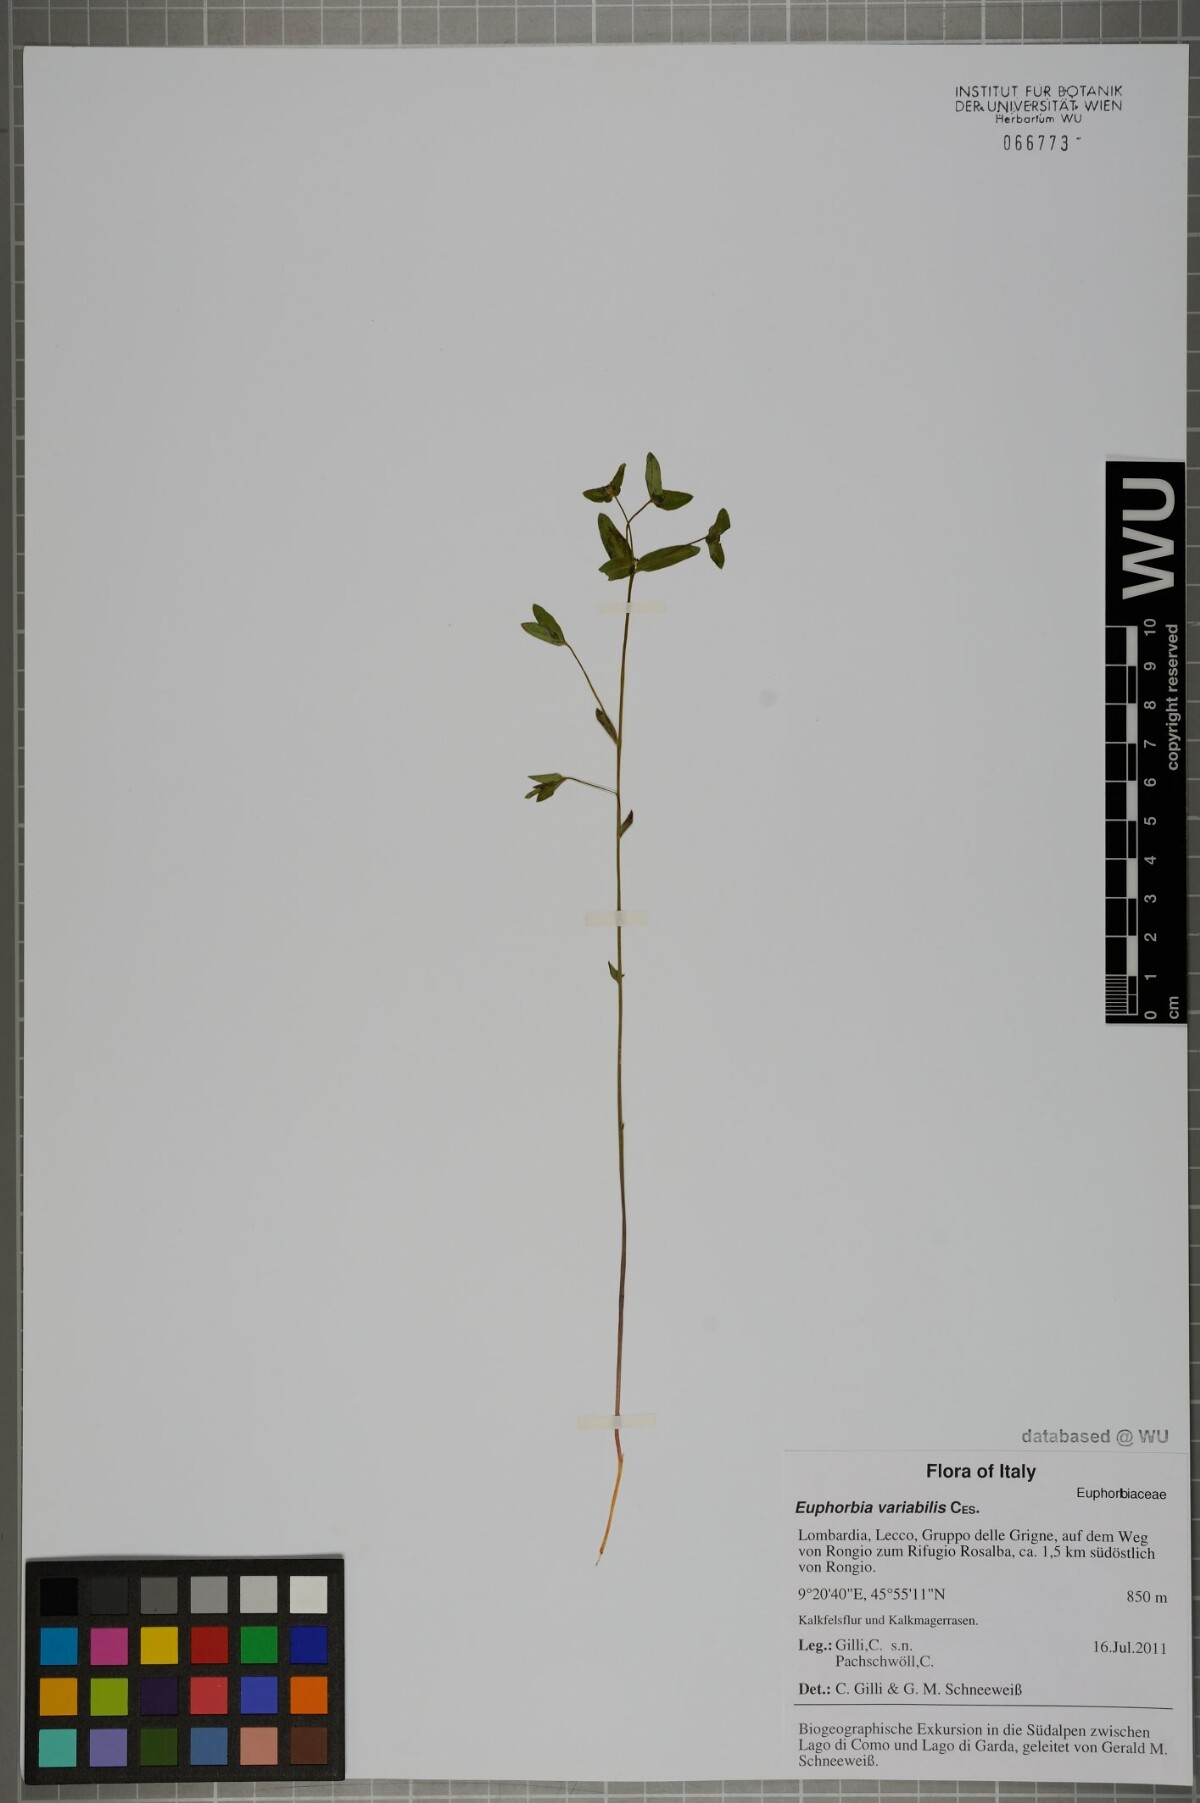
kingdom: Plantae
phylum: Tracheophyta
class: Magnoliopsida
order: Malpighiales
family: Euphorbiaceae
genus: Euphorbia
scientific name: Euphorbia variabilis
